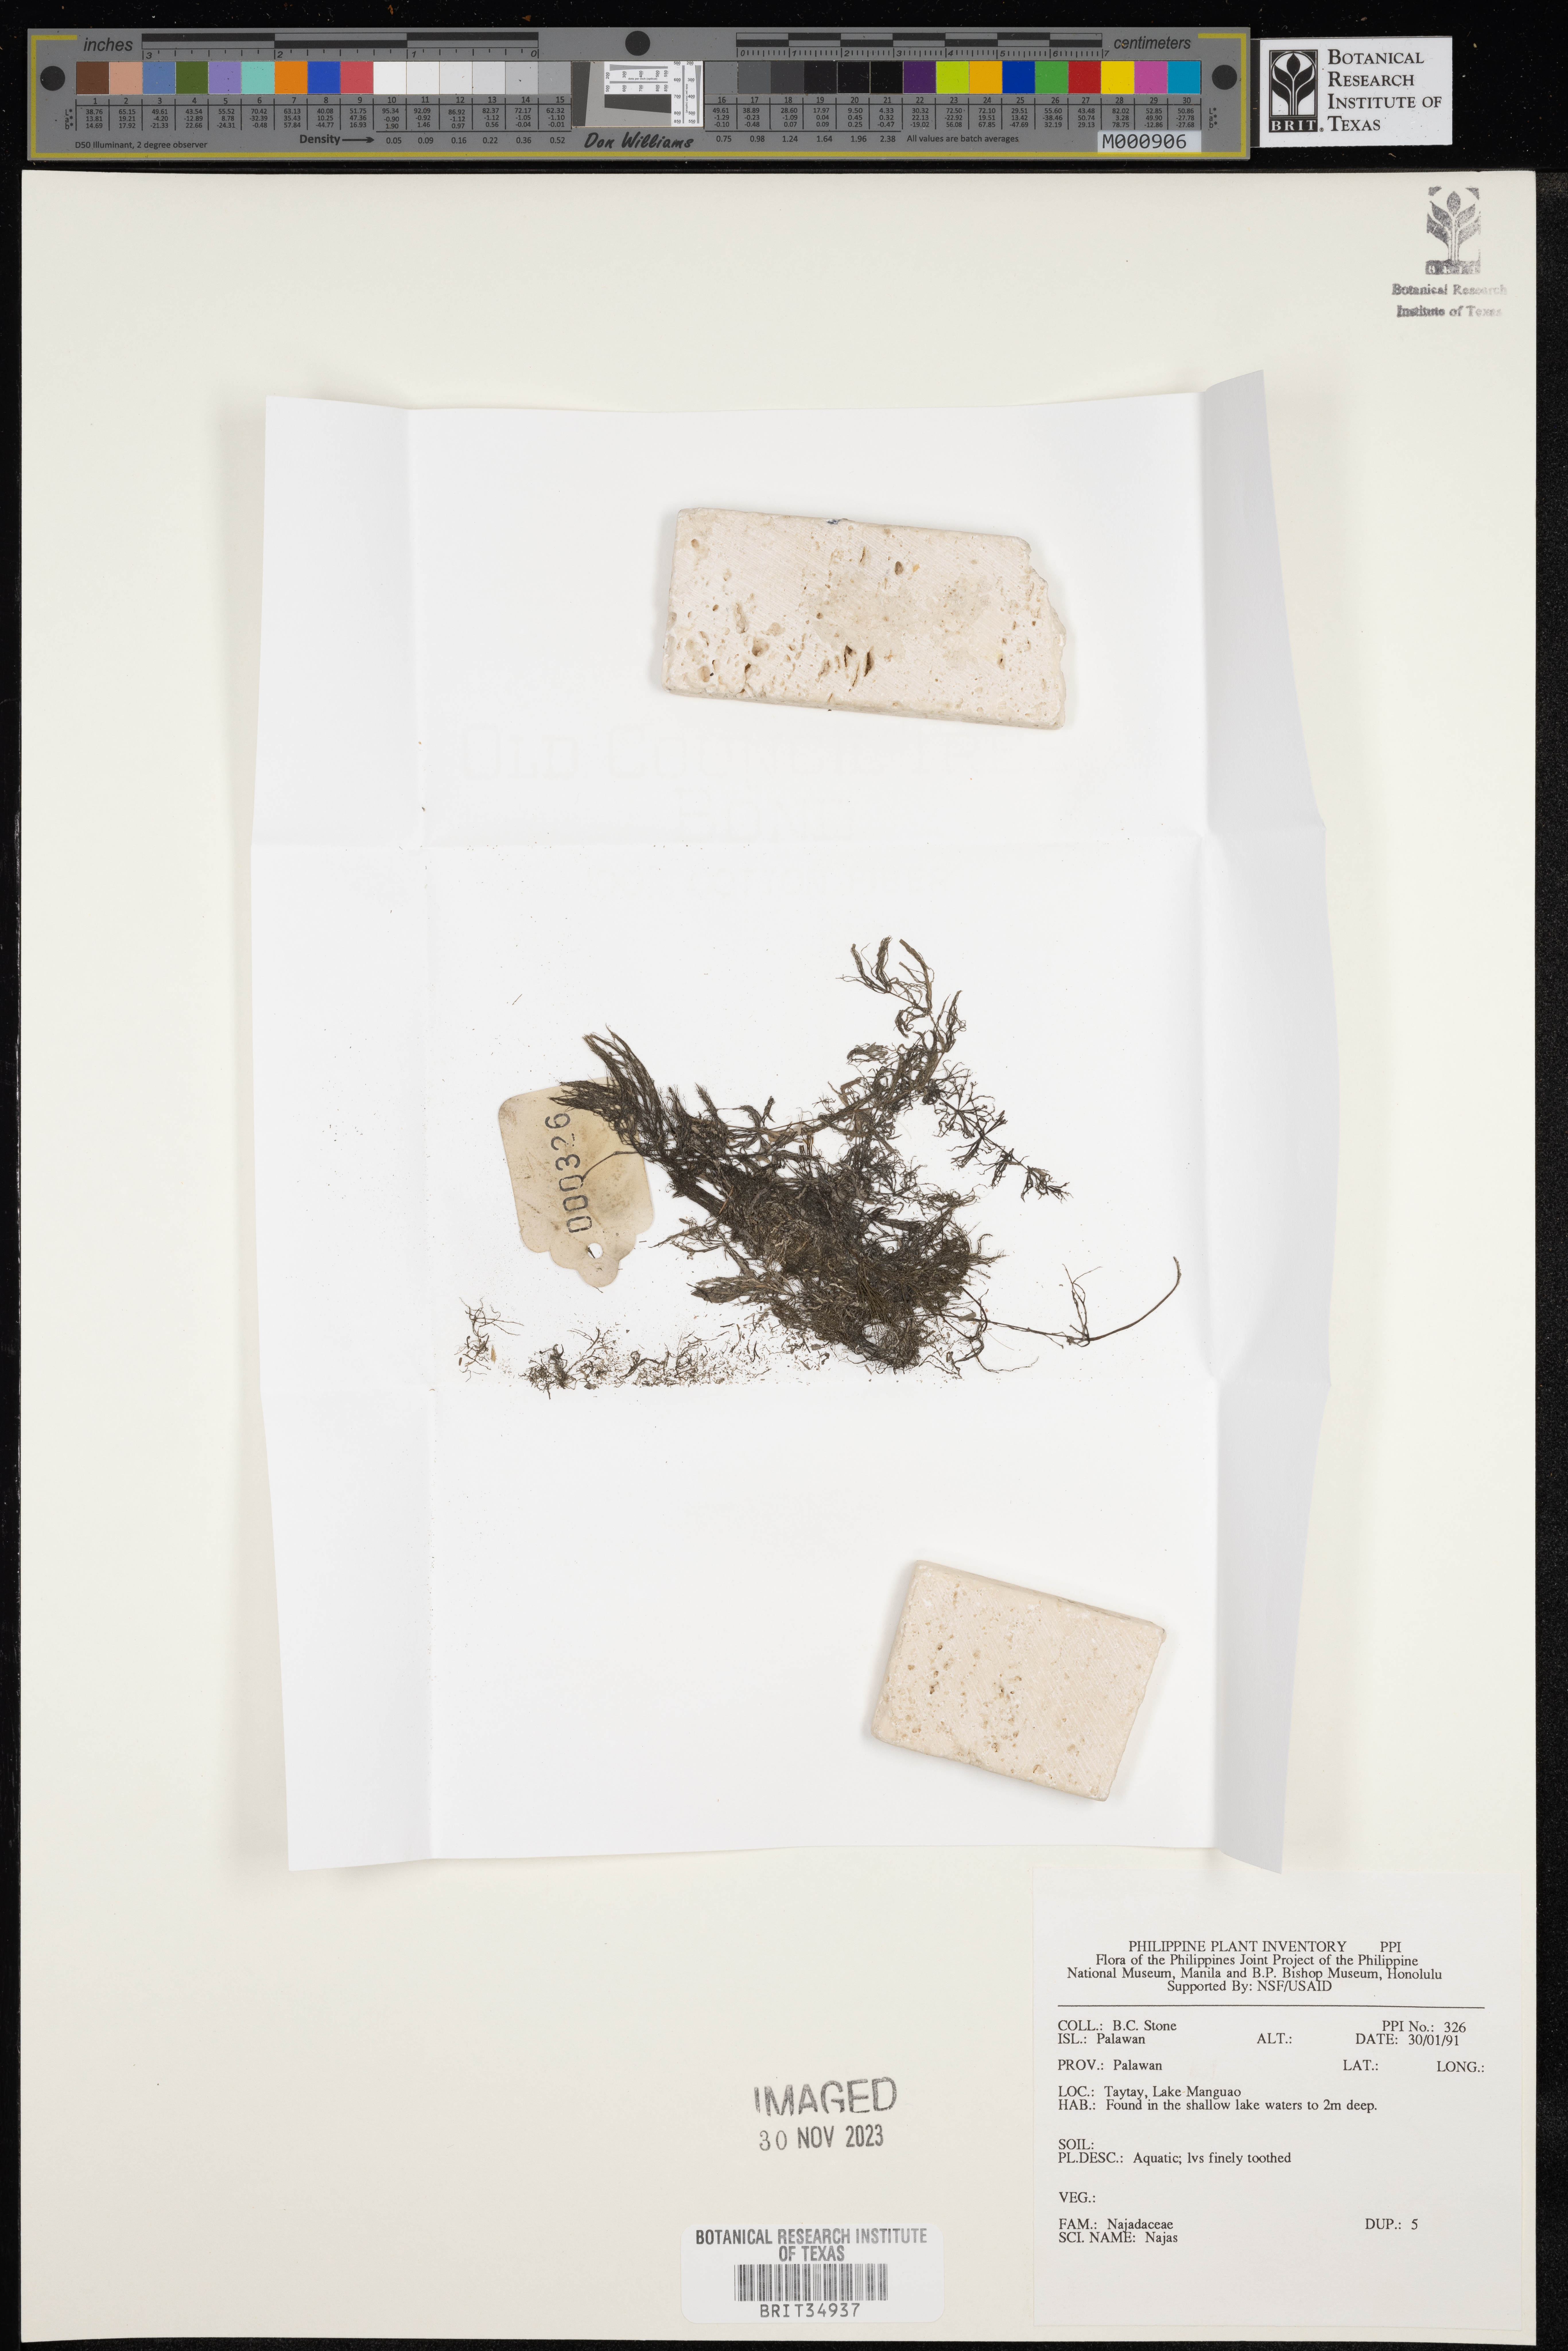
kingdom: Plantae
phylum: Tracheophyta
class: Liliopsida
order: Alismatales
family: Hydrocharitaceae
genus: Najas
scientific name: Najas
